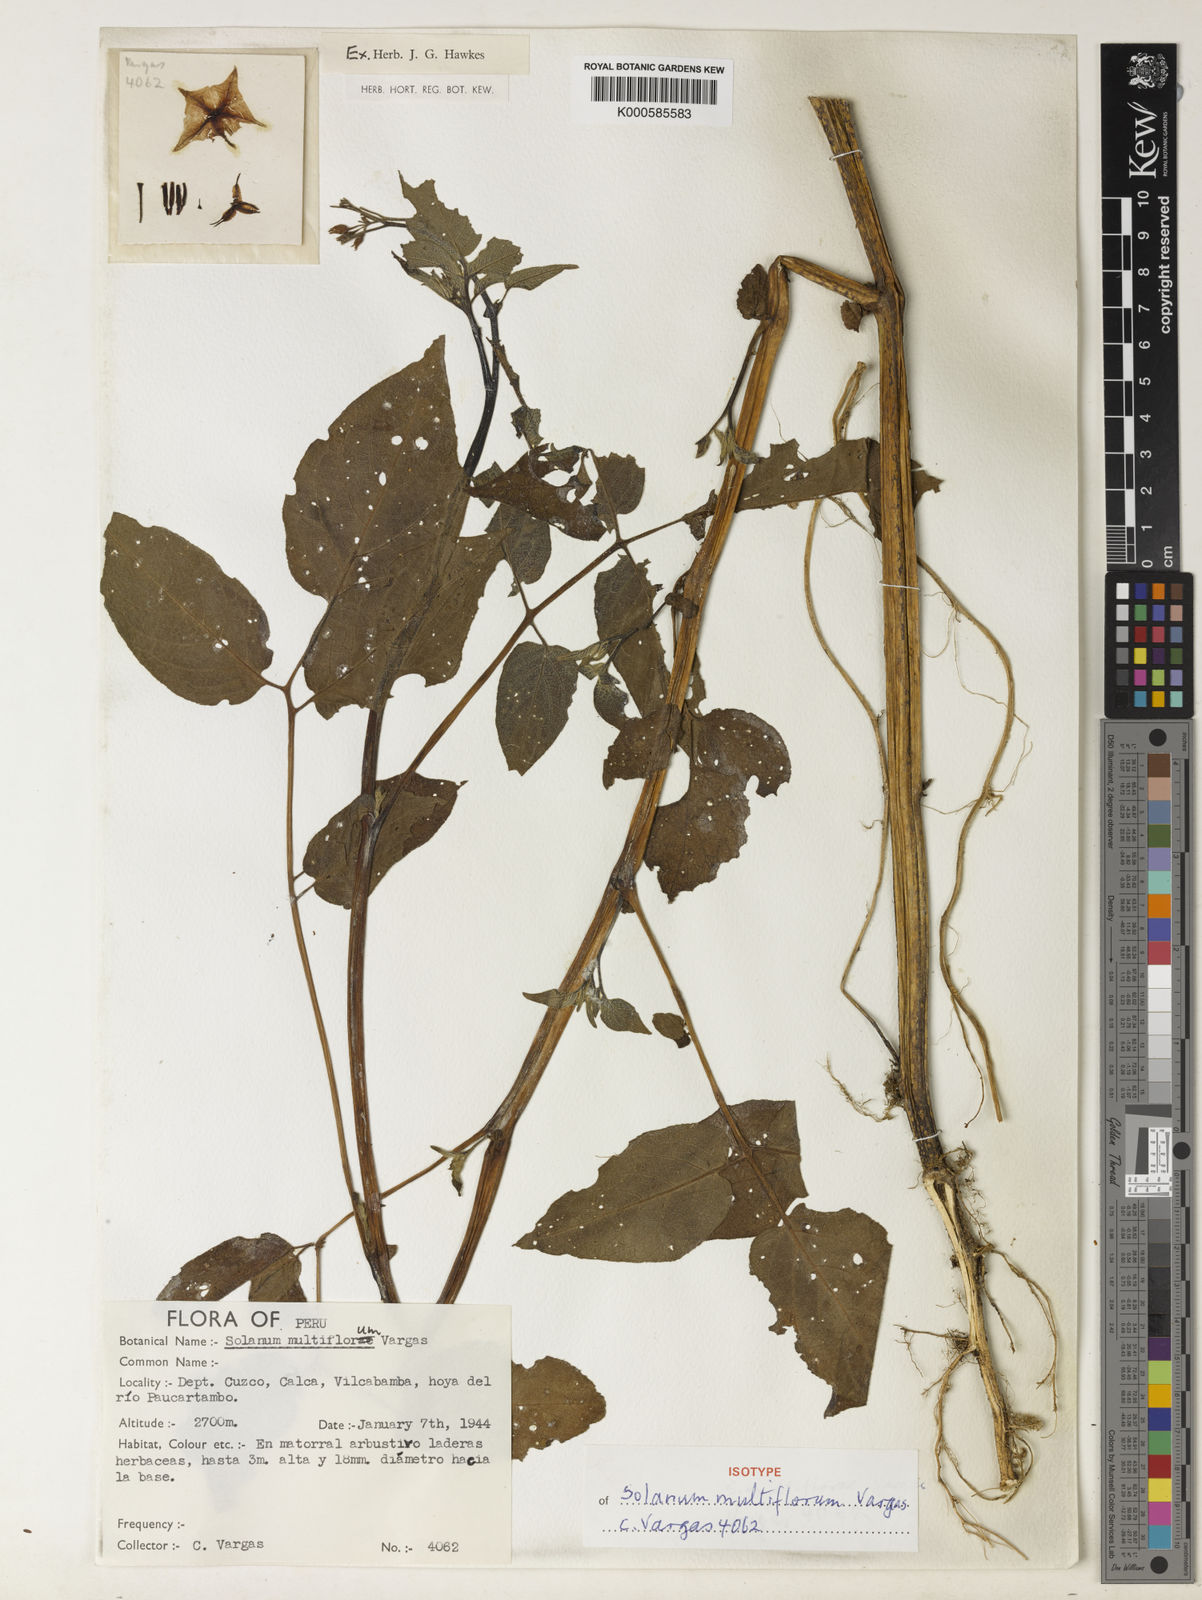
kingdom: Plantae
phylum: Tracheophyta
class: Magnoliopsida
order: Solanales
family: Solanaceae
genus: Solanum
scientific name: Solanum violaceimarmoratum
